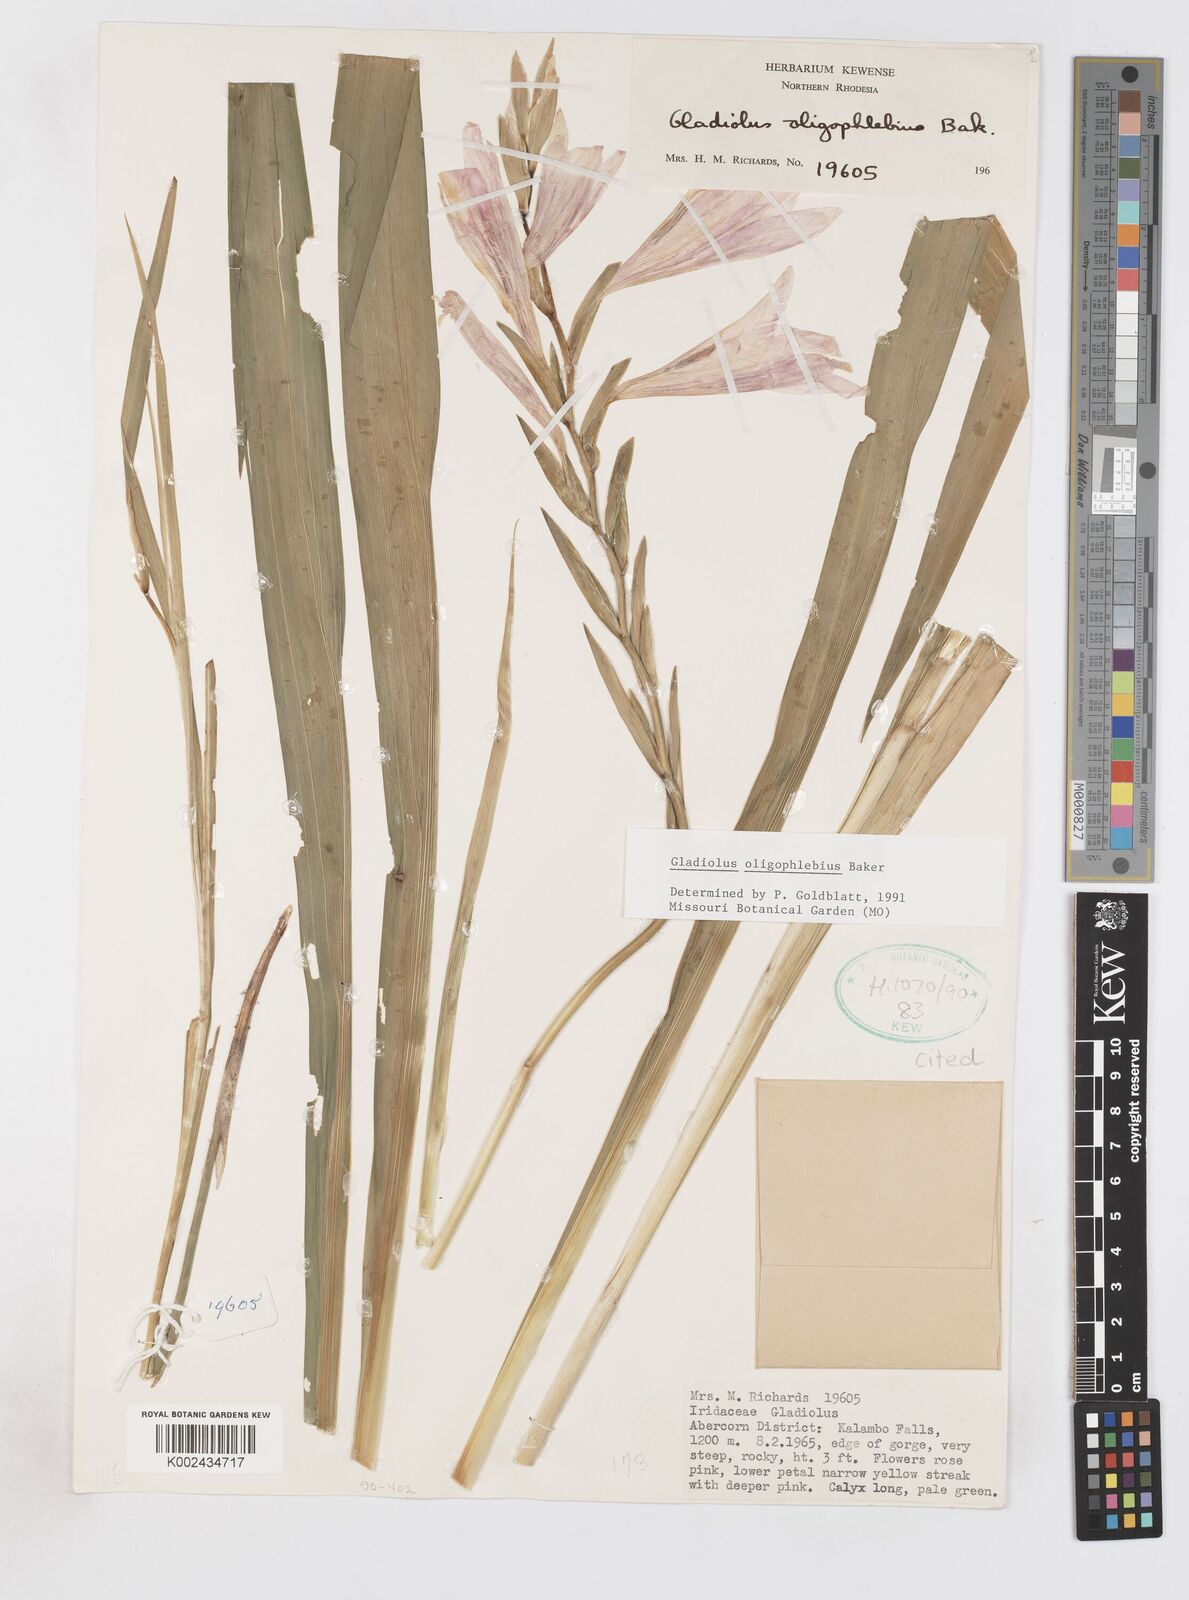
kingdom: Plantae
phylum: Tracheophyta
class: Liliopsida
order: Asparagales
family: Iridaceae
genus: Gladiolus
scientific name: Gladiolus oligophlebius
